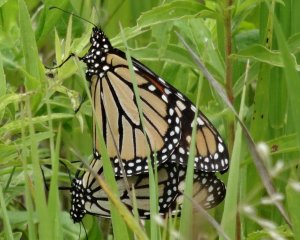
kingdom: Animalia
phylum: Arthropoda
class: Insecta
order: Lepidoptera
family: Nymphalidae
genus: Danaus
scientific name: Danaus plexippus
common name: Monarch
